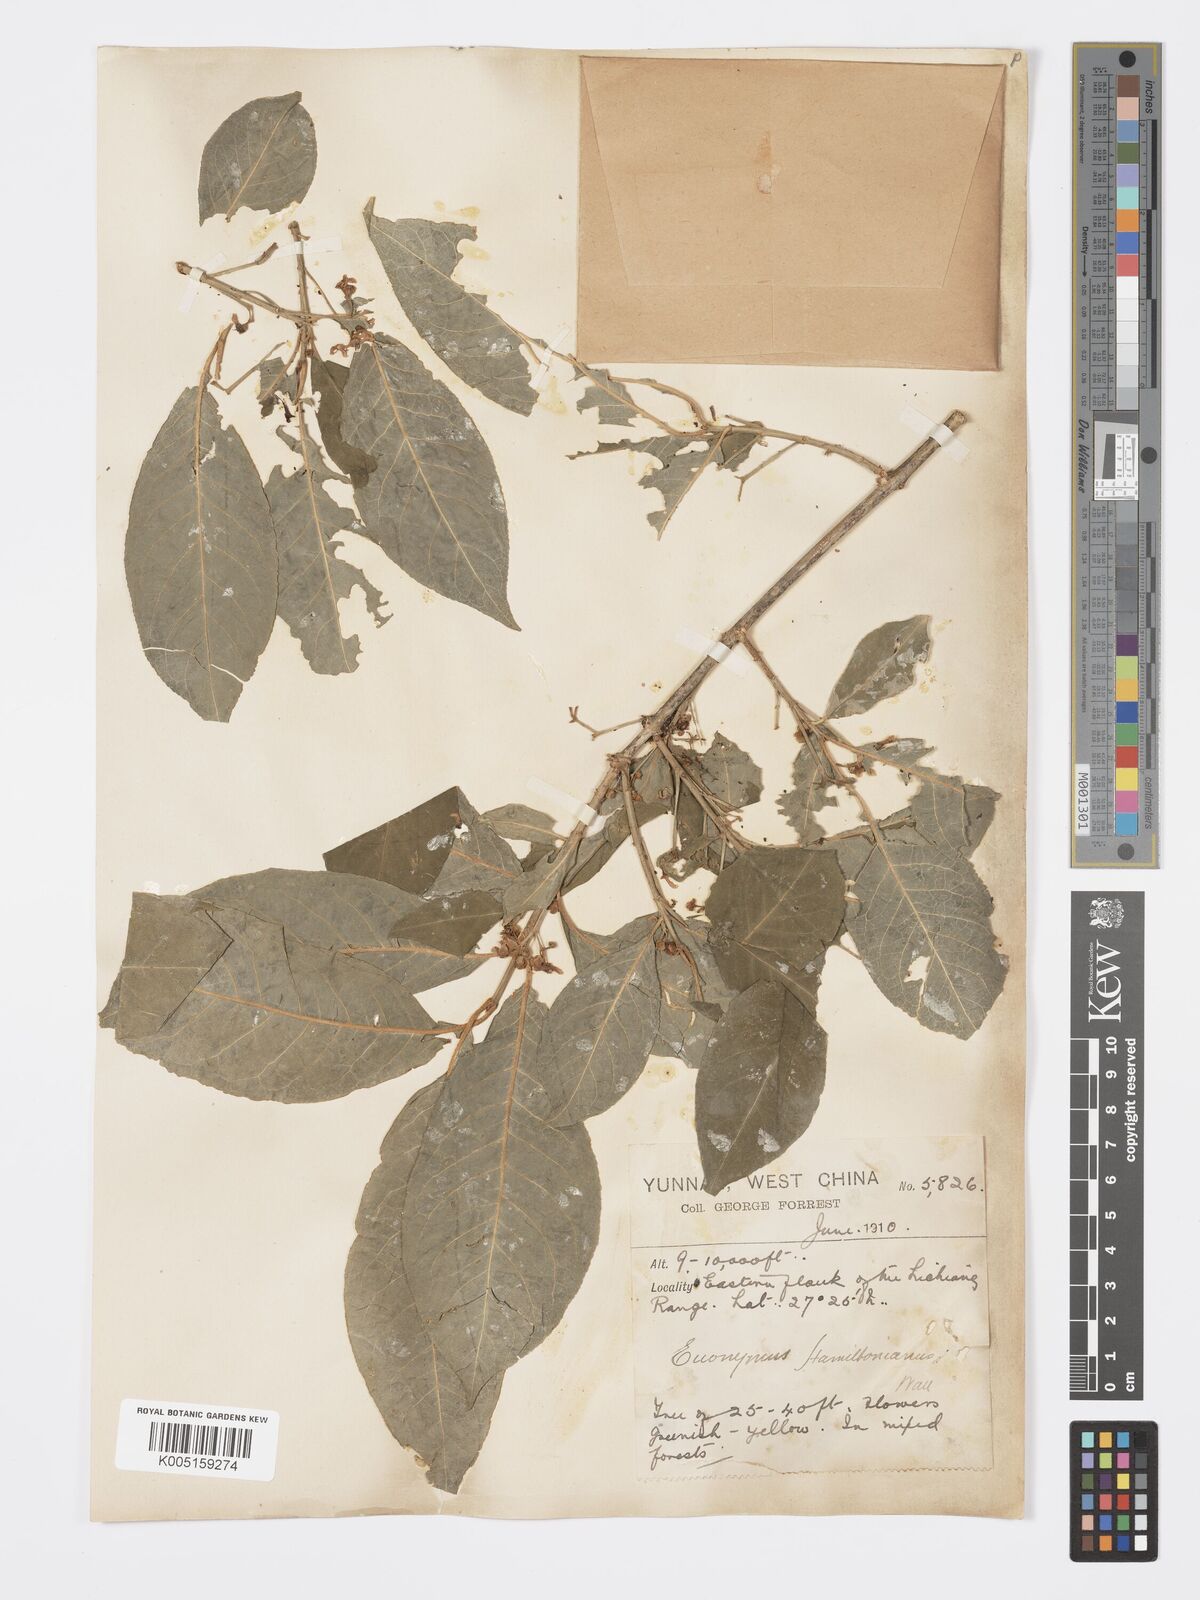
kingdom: Plantae
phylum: Tracheophyta
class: Magnoliopsida
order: Celastrales
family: Celastraceae
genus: Euonymus
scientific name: Euonymus hamiltonianus
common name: Hamilton's spindletree
